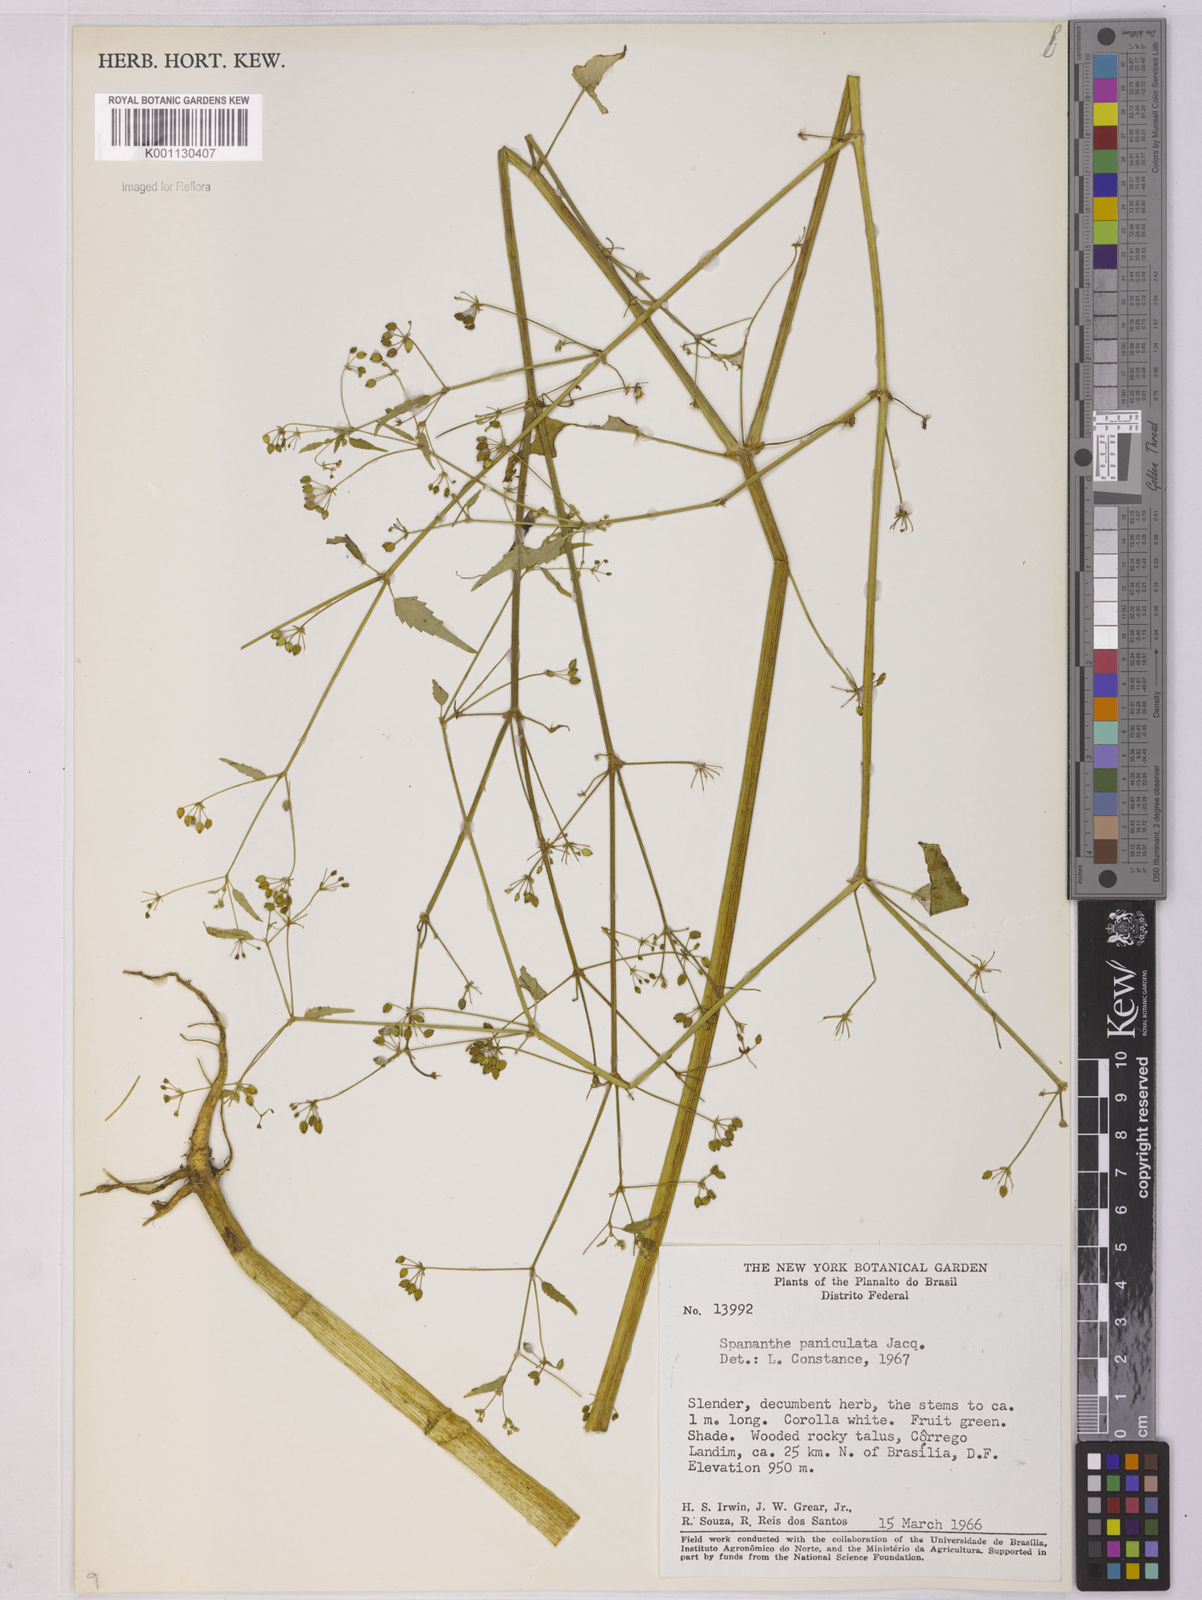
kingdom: Plantae
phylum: Tracheophyta
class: Magnoliopsida
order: Apiales
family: Apiaceae
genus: Spananthe
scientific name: Spananthe paniculata
